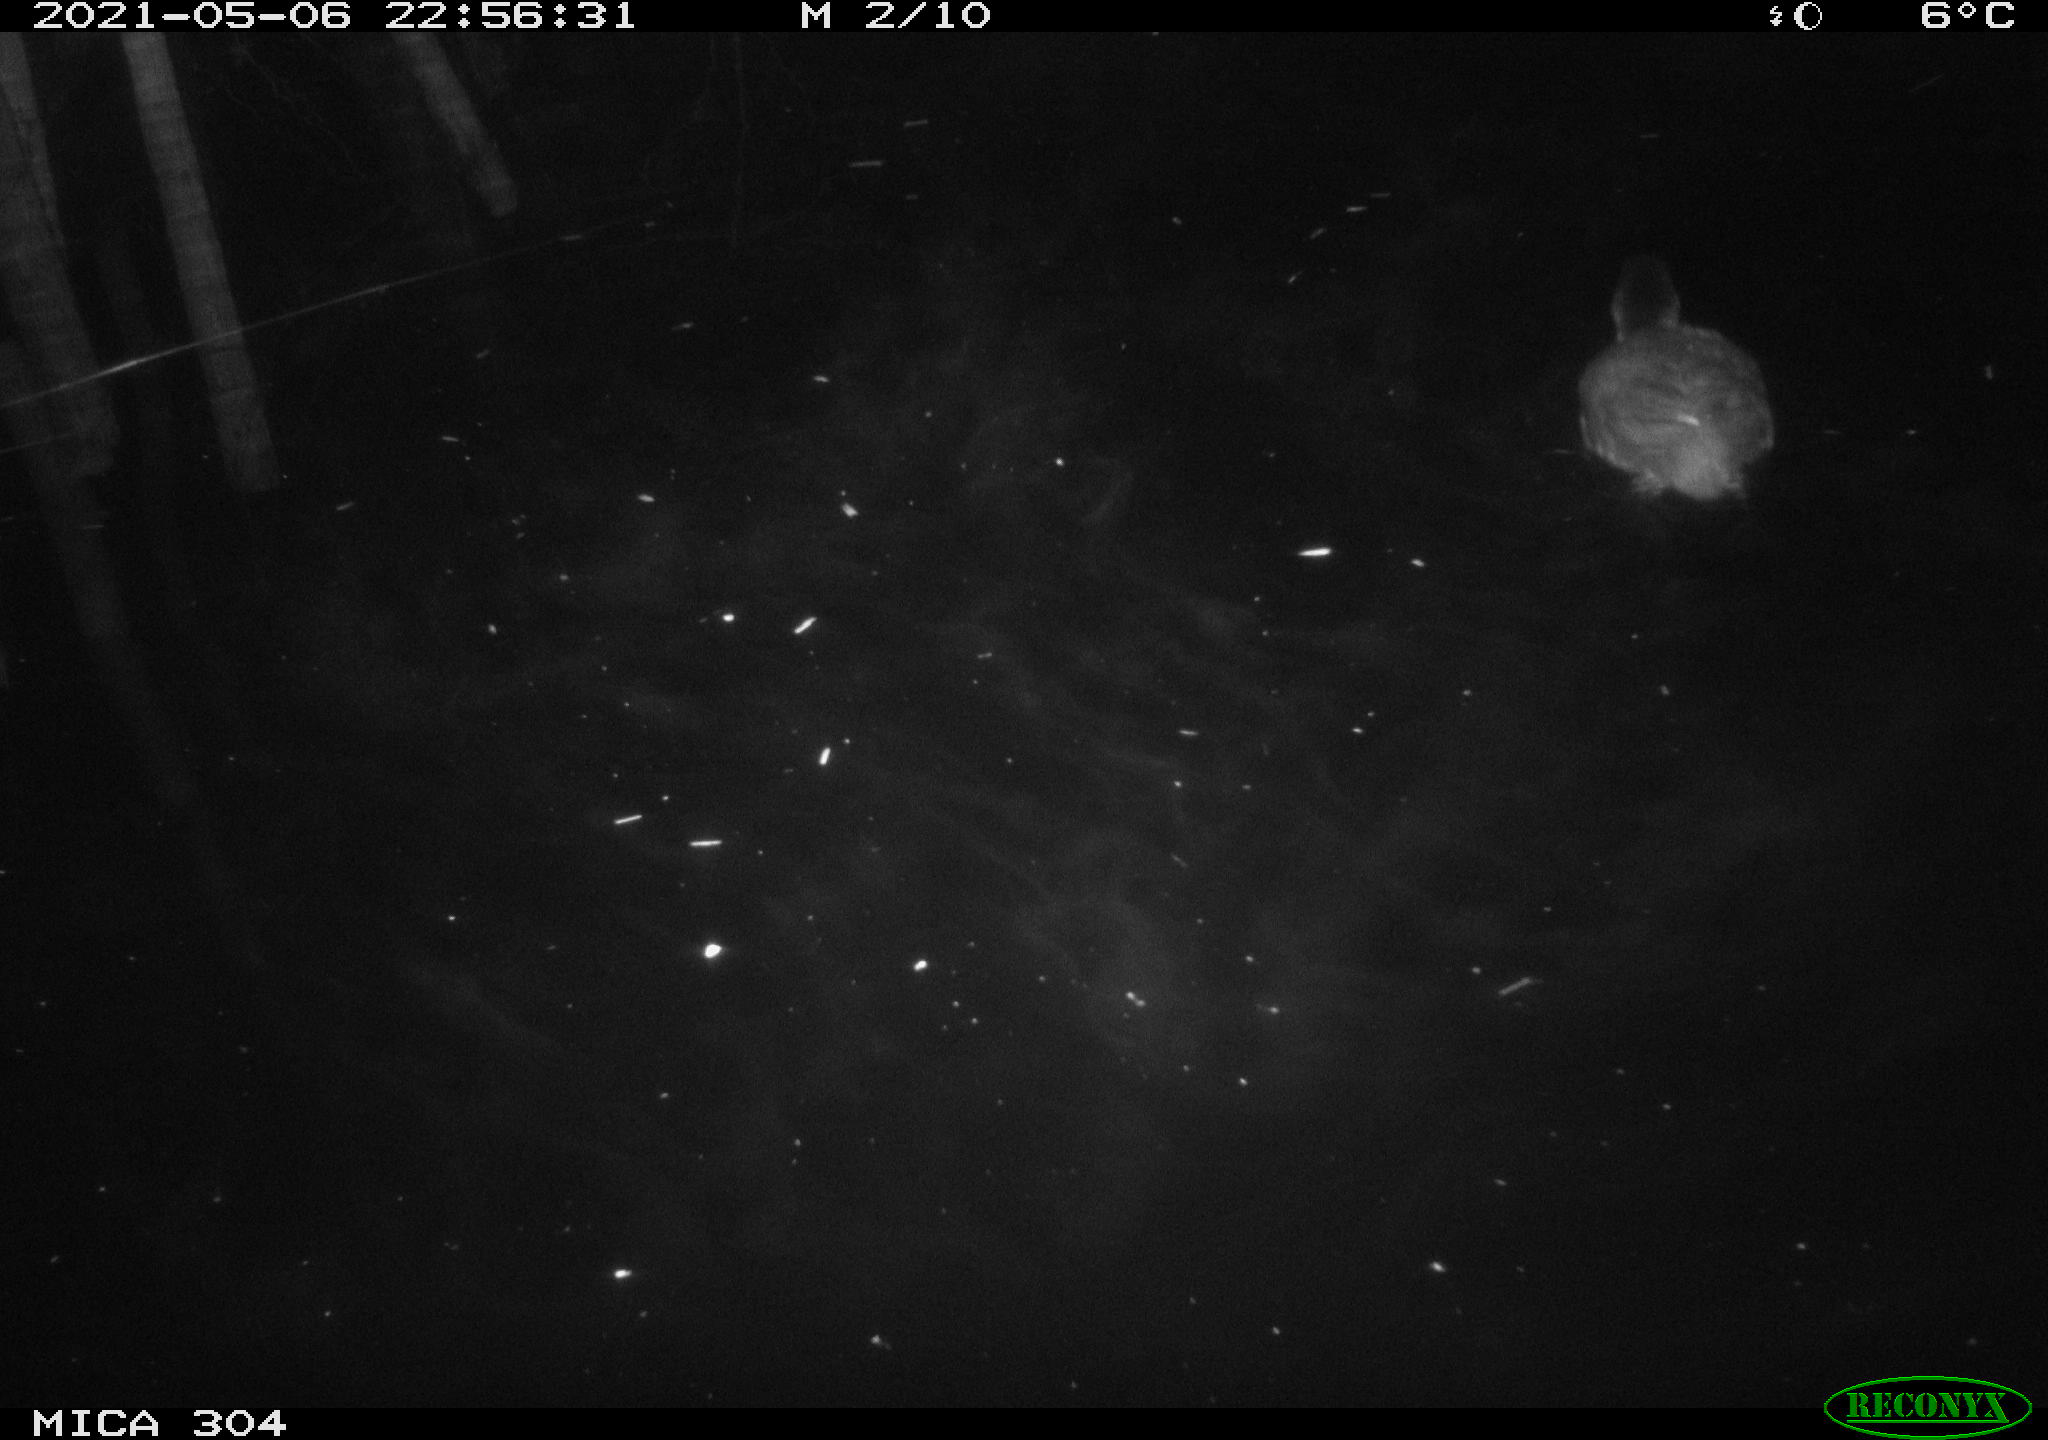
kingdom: Animalia
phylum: Chordata
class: Aves
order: Anseriformes
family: Anatidae
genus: Anas
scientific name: Anas platyrhynchos
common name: Mallard
